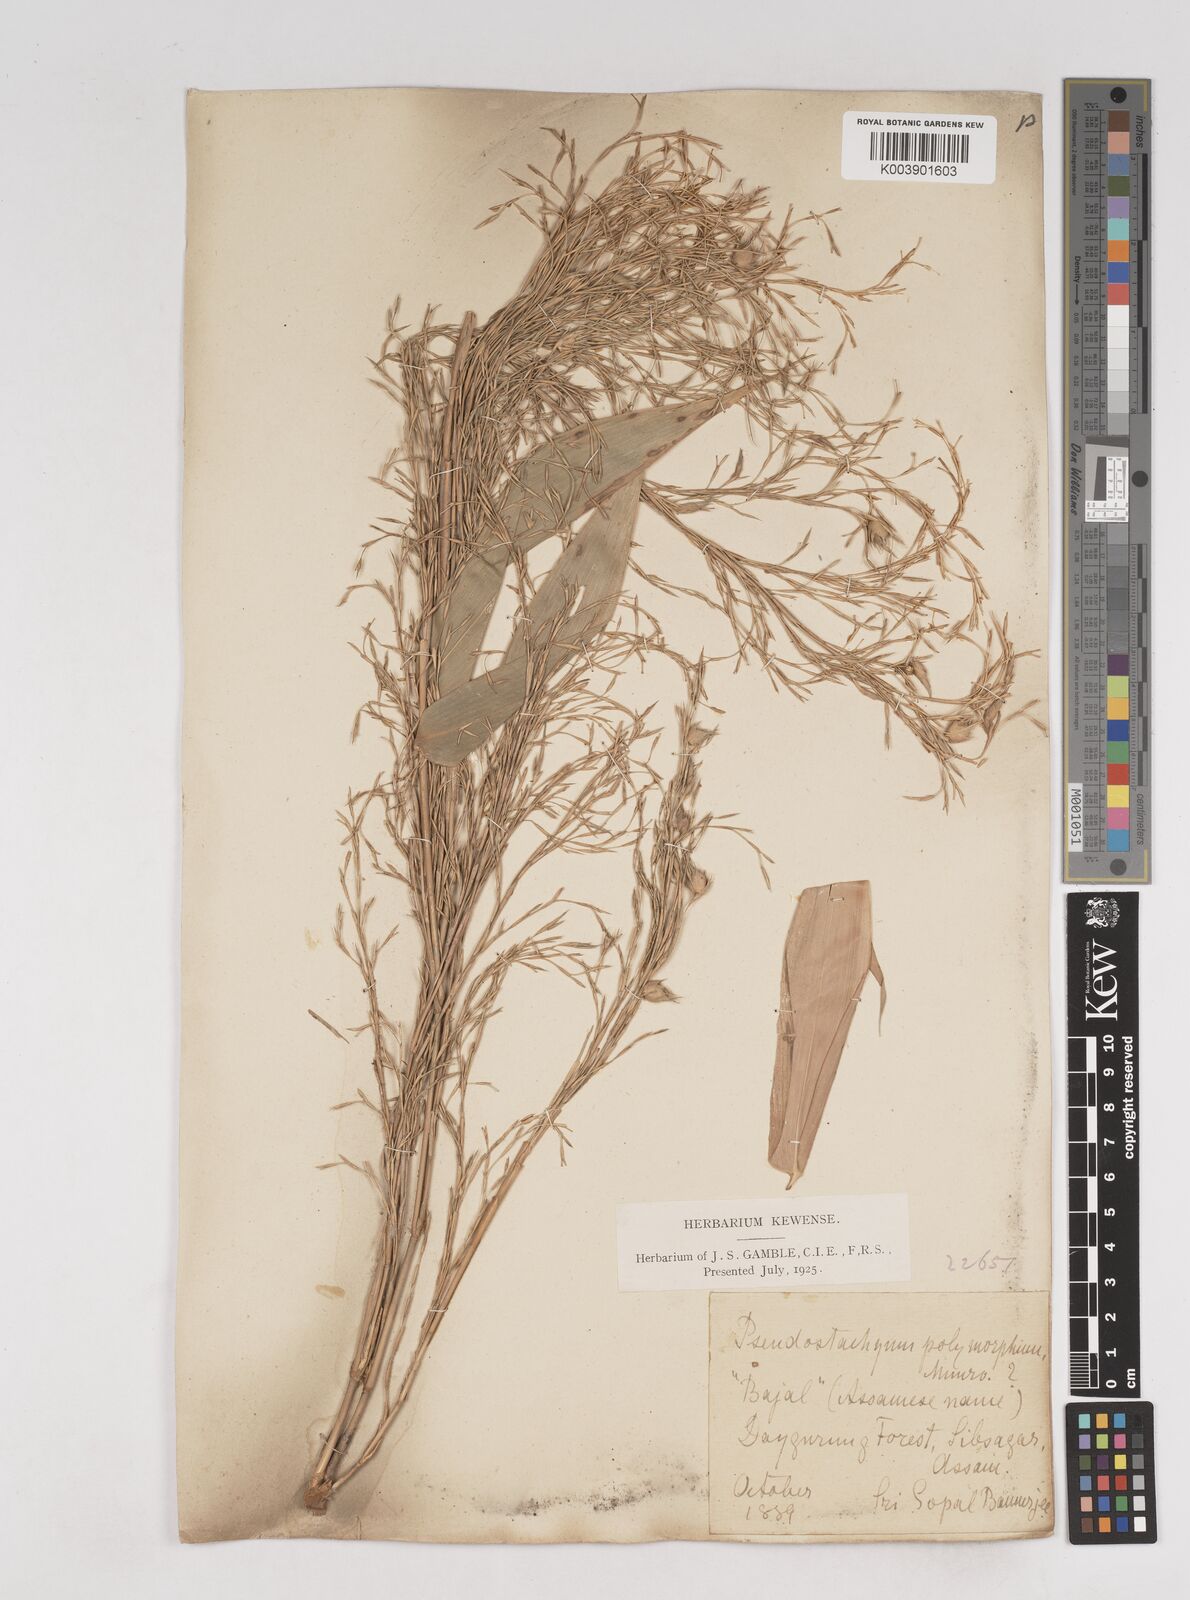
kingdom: Plantae
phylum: Tracheophyta
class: Liliopsida
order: Poales
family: Poaceae
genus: Pseudostachyum
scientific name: Pseudostachyum polymorphum
